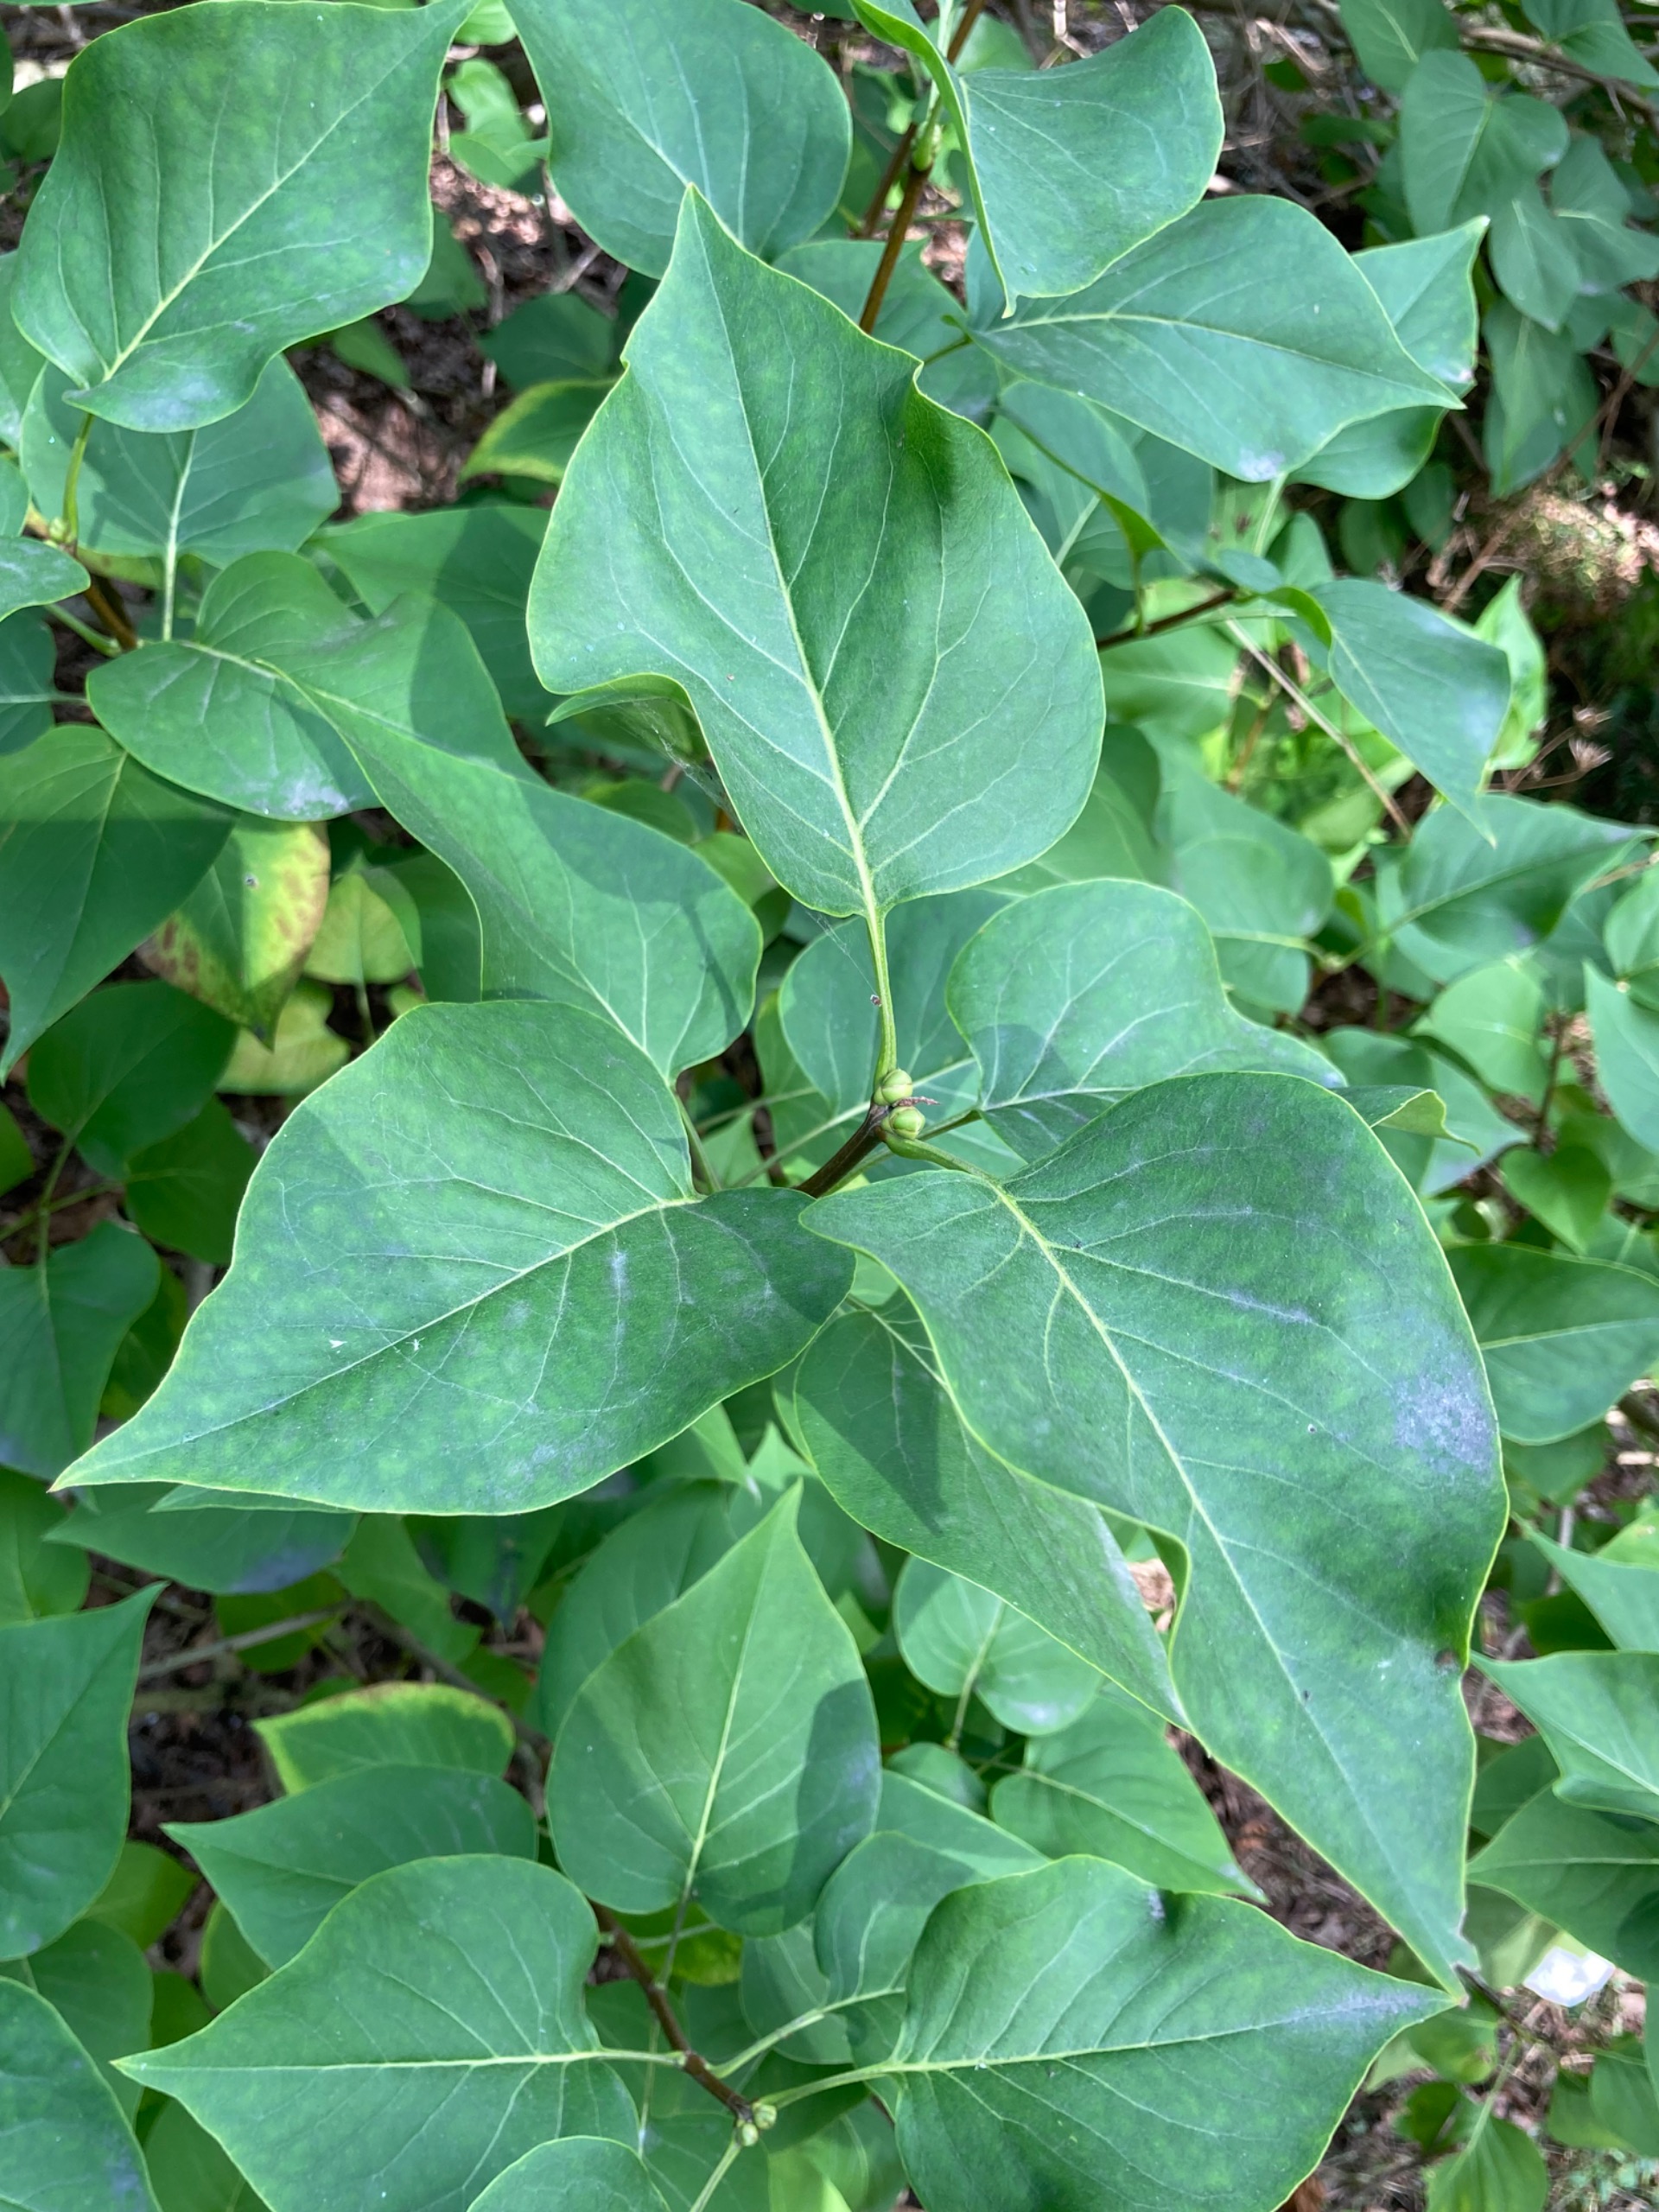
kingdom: Plantae
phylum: Tracheophyta
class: Magnoliopsida
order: Lamiales
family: Oleaceae
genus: Syringa
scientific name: Syringa vulgaris
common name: Syren
